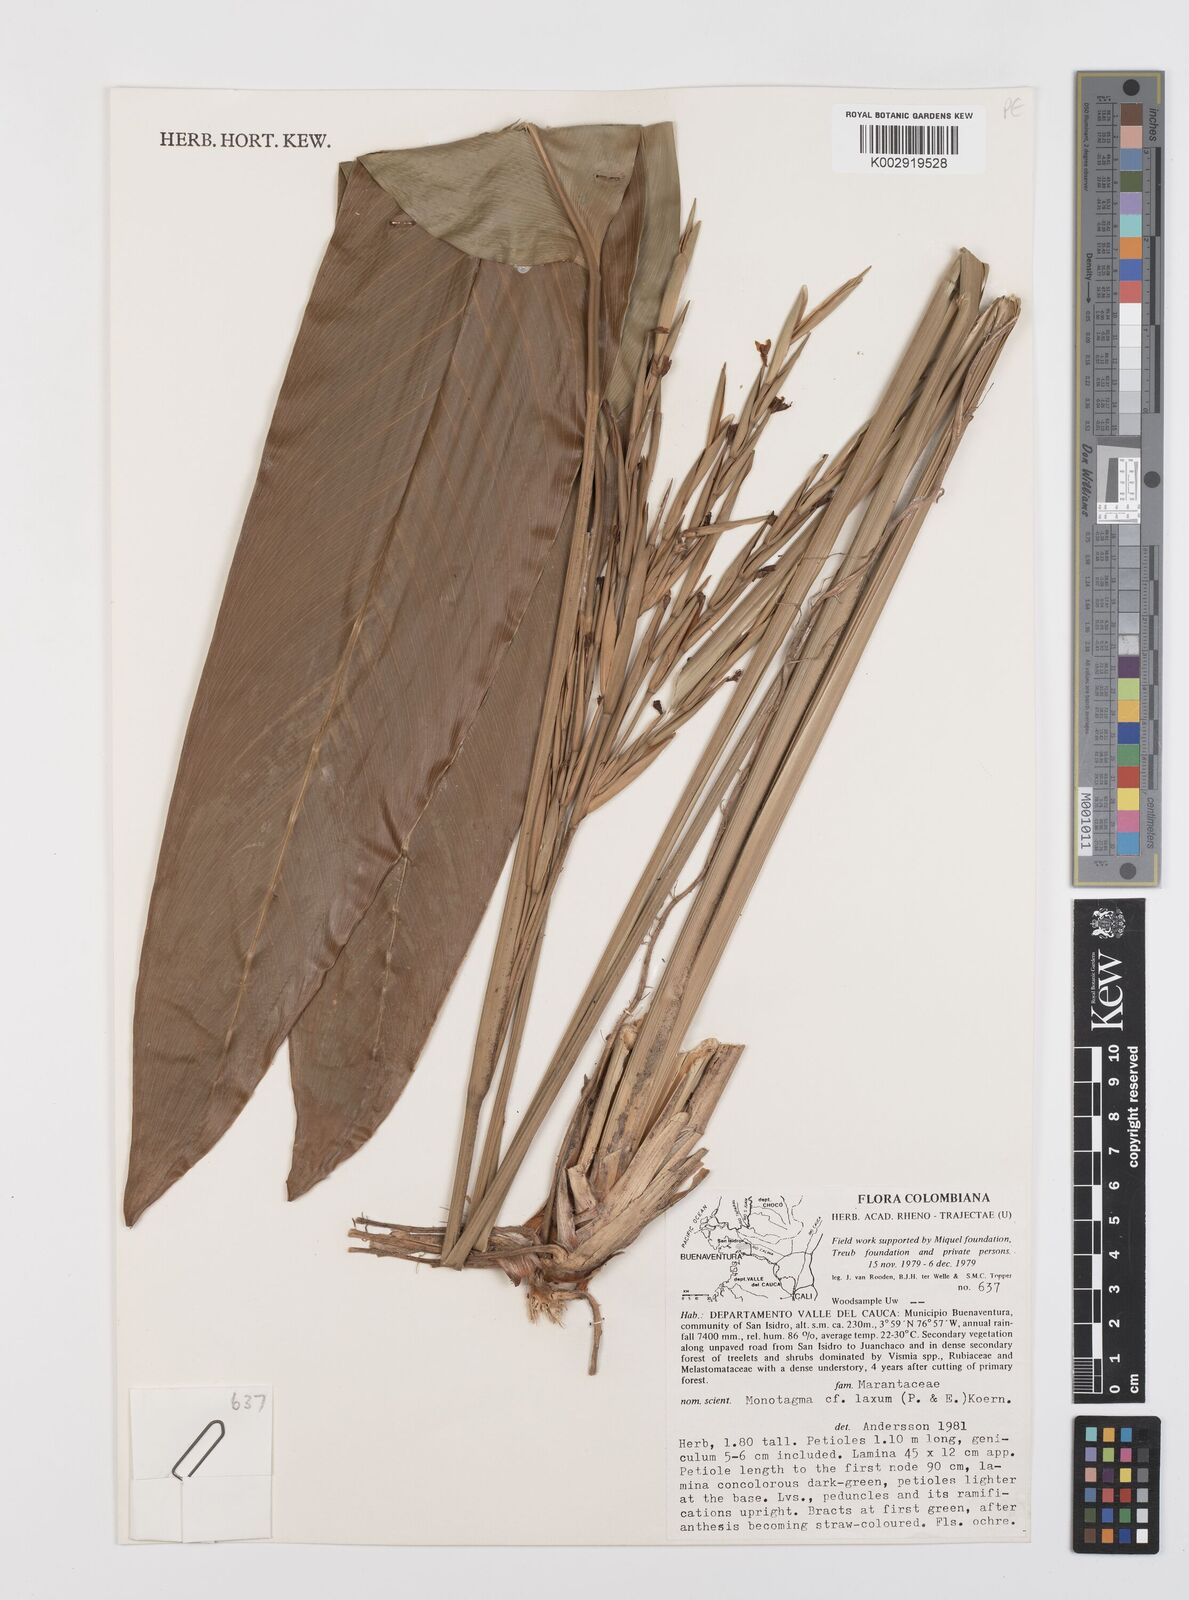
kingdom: Plantae
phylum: Tracheophyta
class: Liliopsida
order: Zingiberales
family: Marantaceae
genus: Monotagma
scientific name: Monotagma laxum
